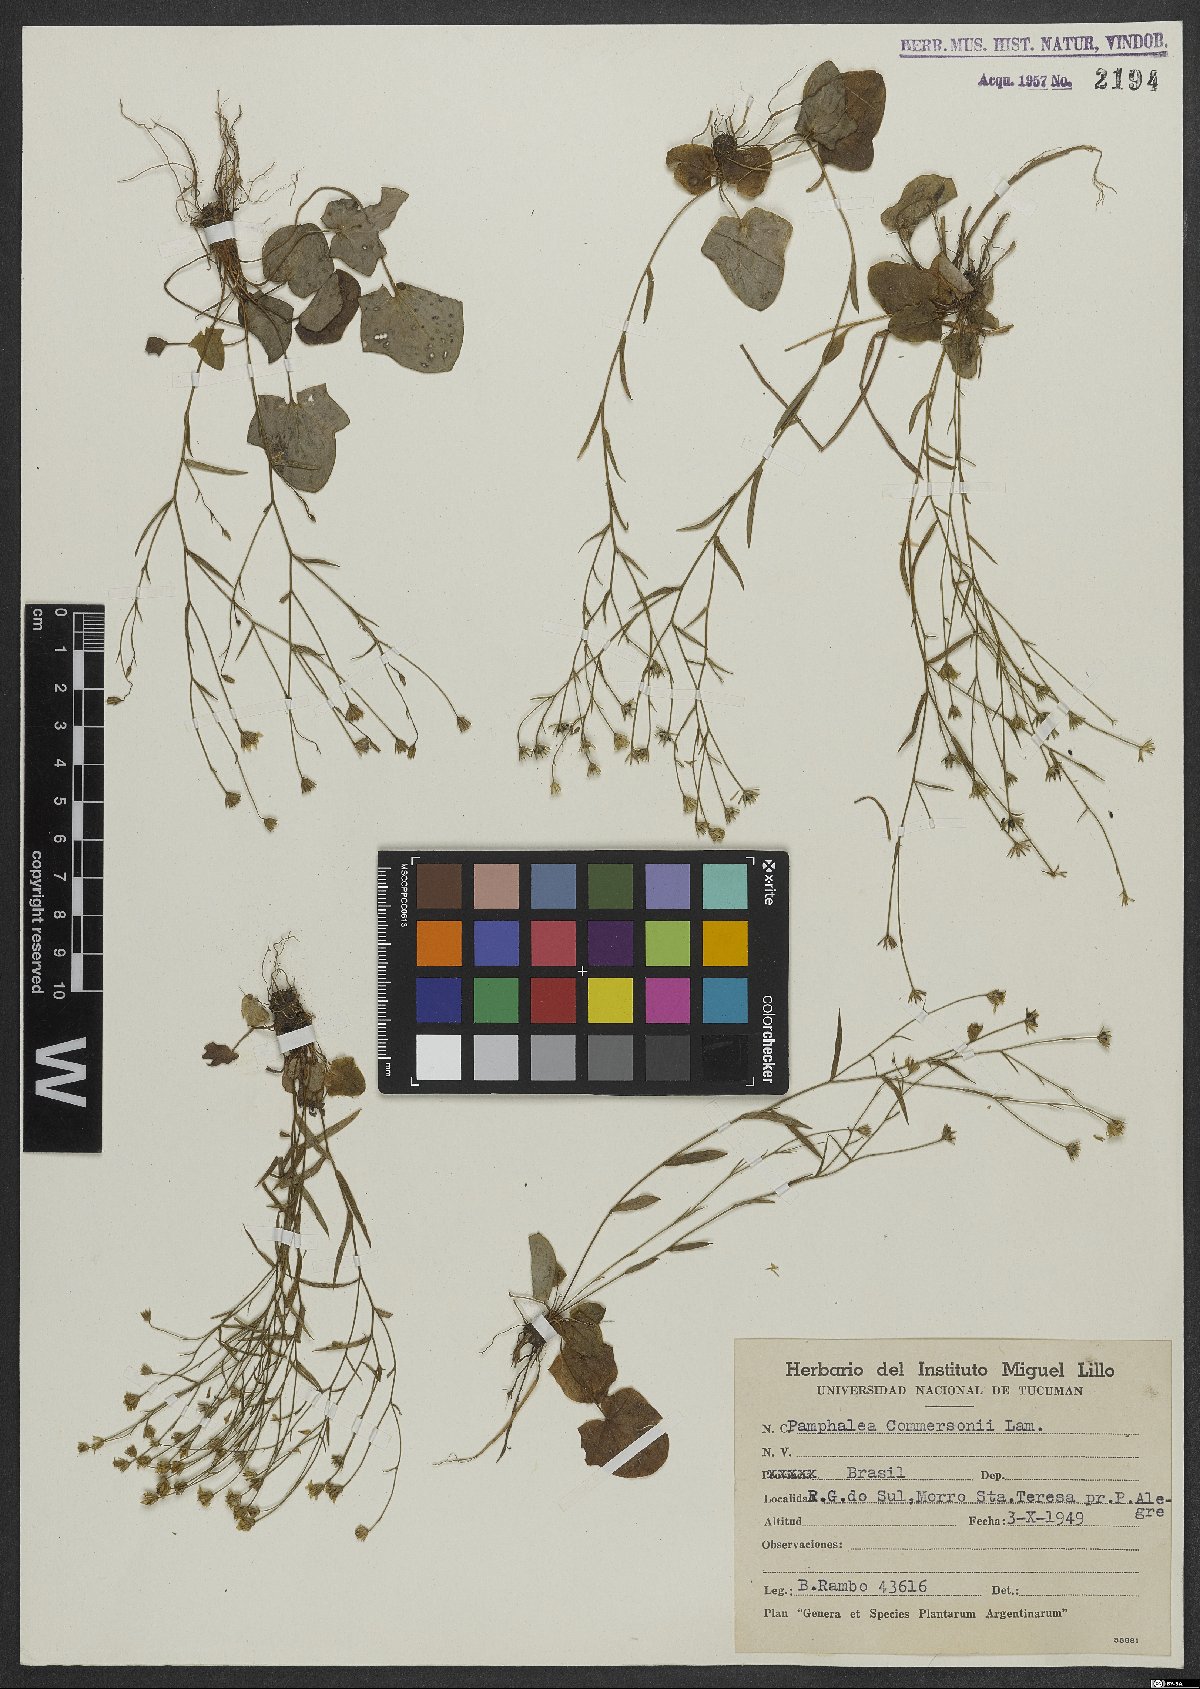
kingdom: Plantae
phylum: Tracheophyta
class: Magnoliopsida
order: Asterales
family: Asteraceae
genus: Panphalea
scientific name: Panphalea commersonii
